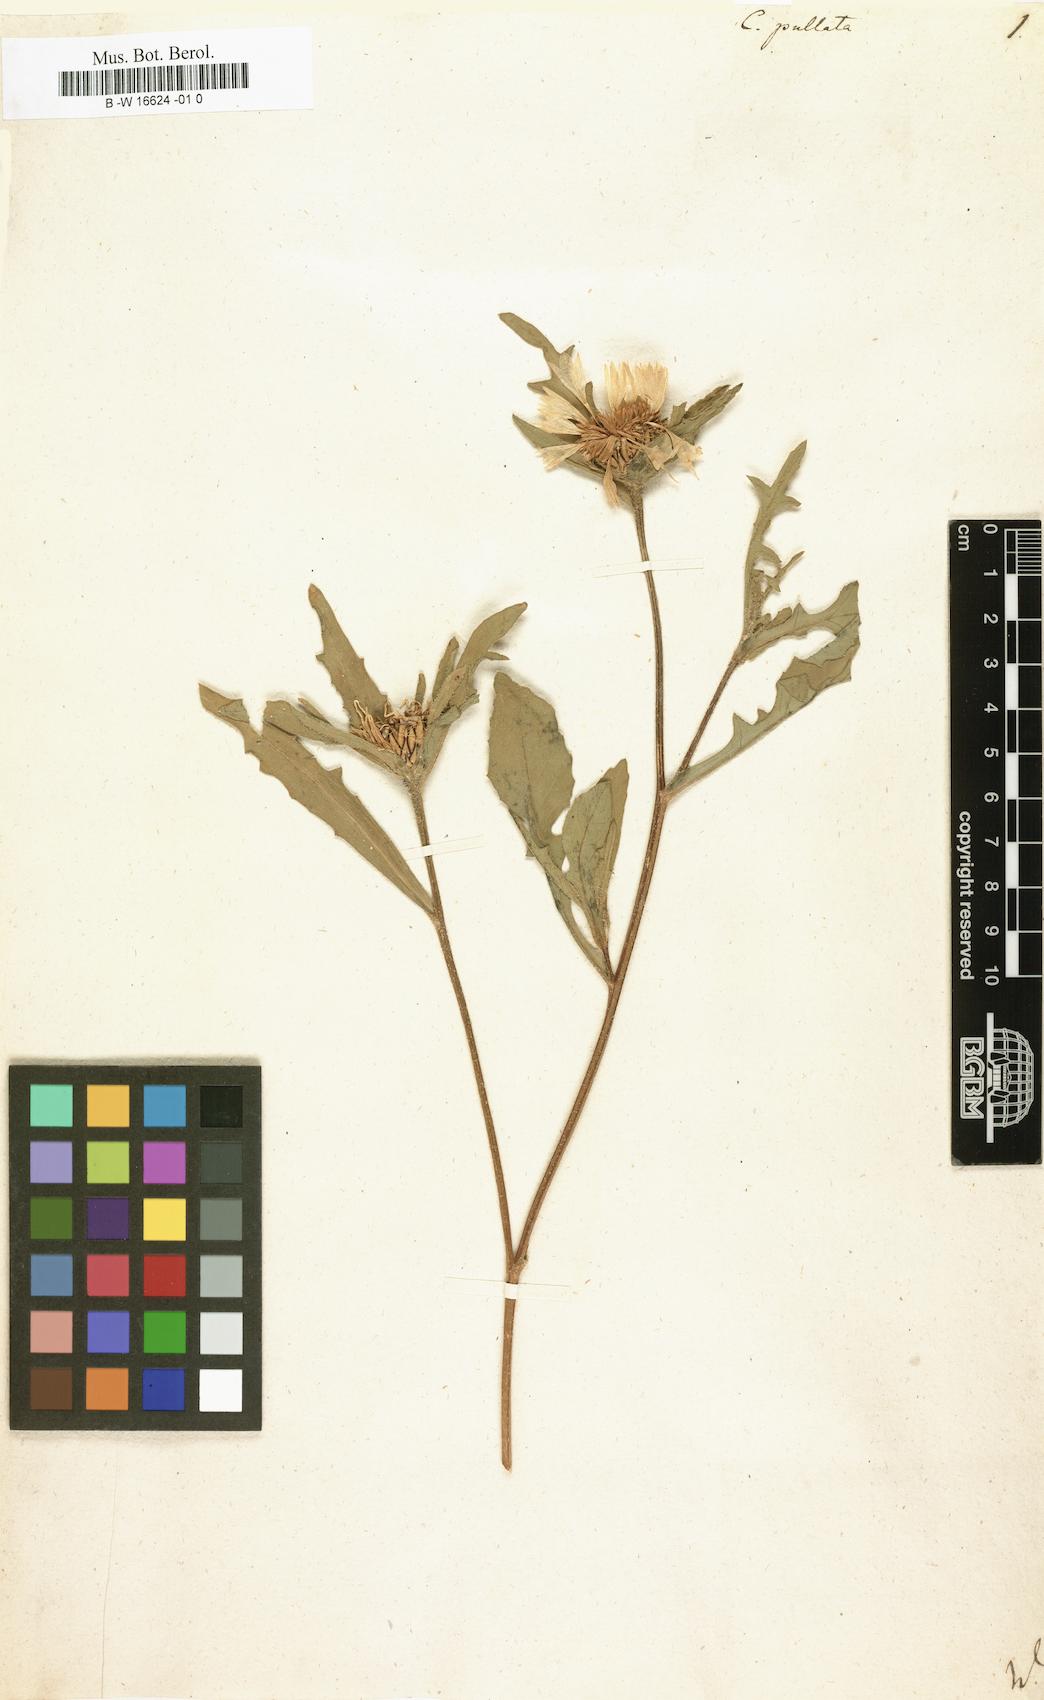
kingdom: Plantae
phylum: Tracheophyta
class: Magnoliopsida
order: Asterales
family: Asteraceae
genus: Centaurea
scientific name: Centaurea pullata
